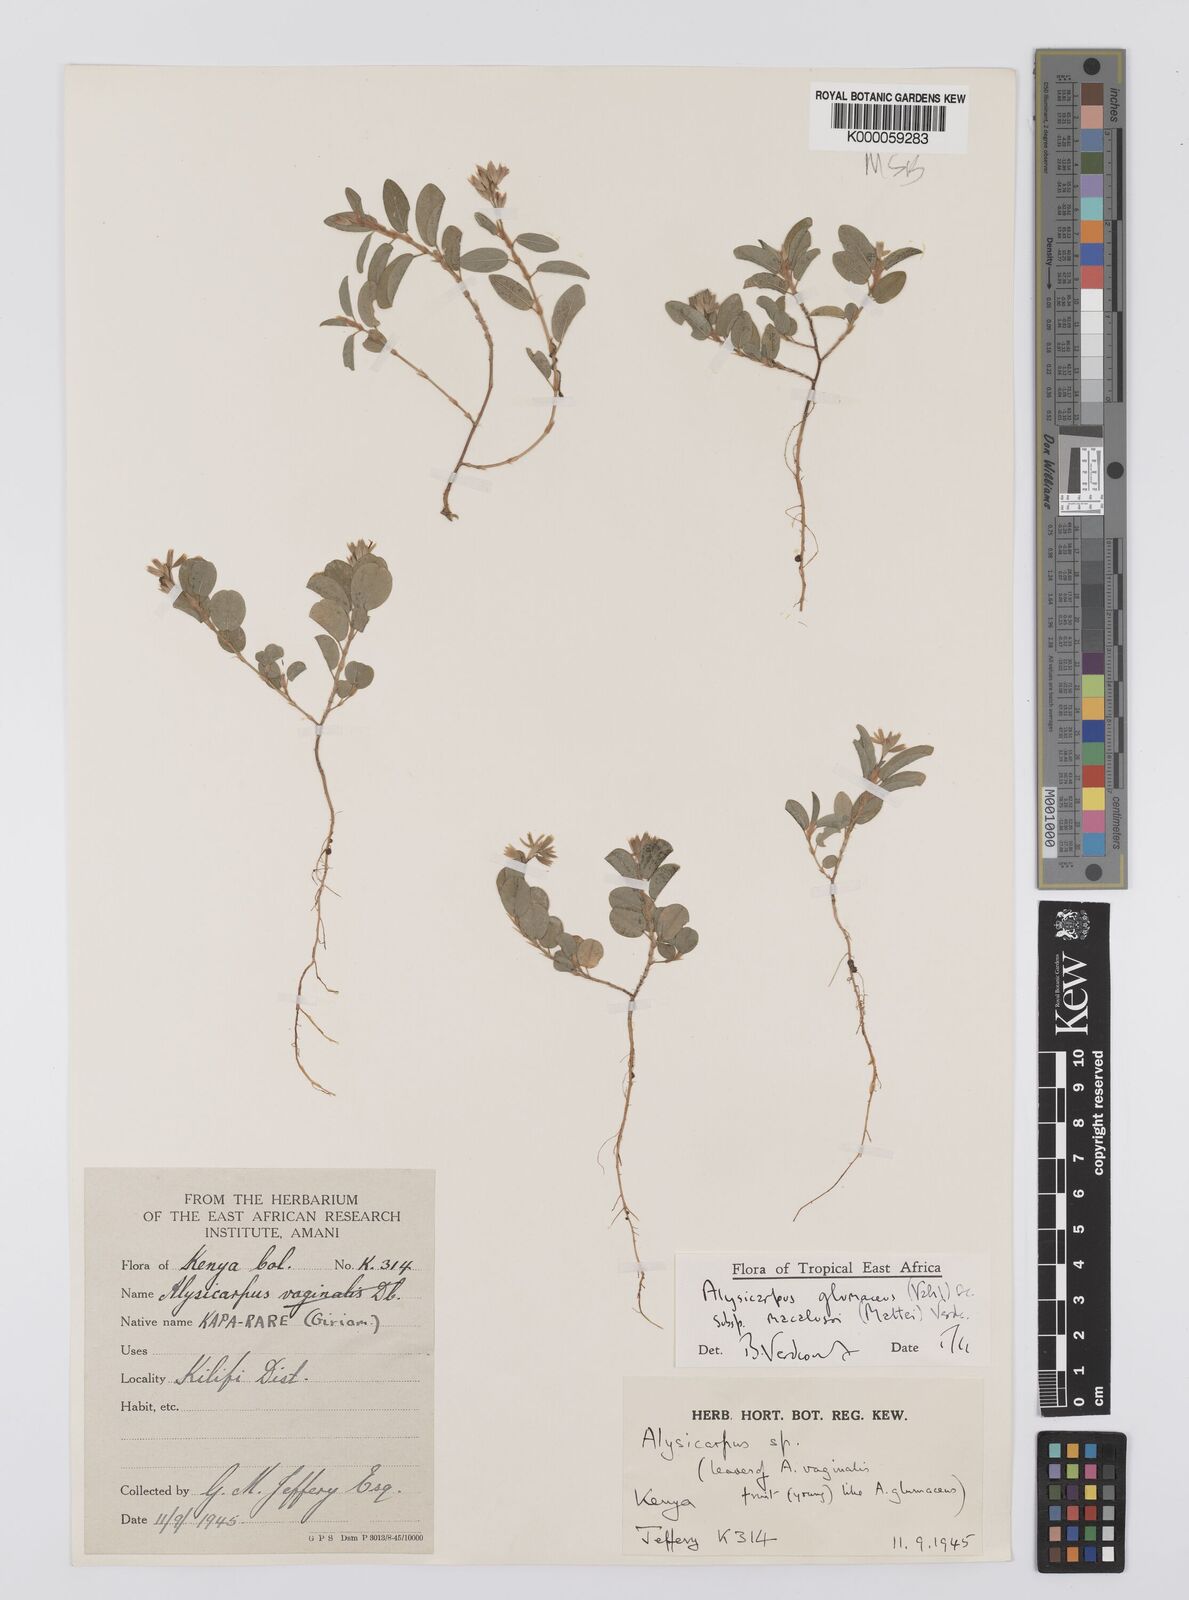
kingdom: Plantae
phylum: Tracheophyta
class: Magnoliopsida
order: Fabales
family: Fabaceae
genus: Alysicarpus
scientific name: Alysicarpus glumaceus
